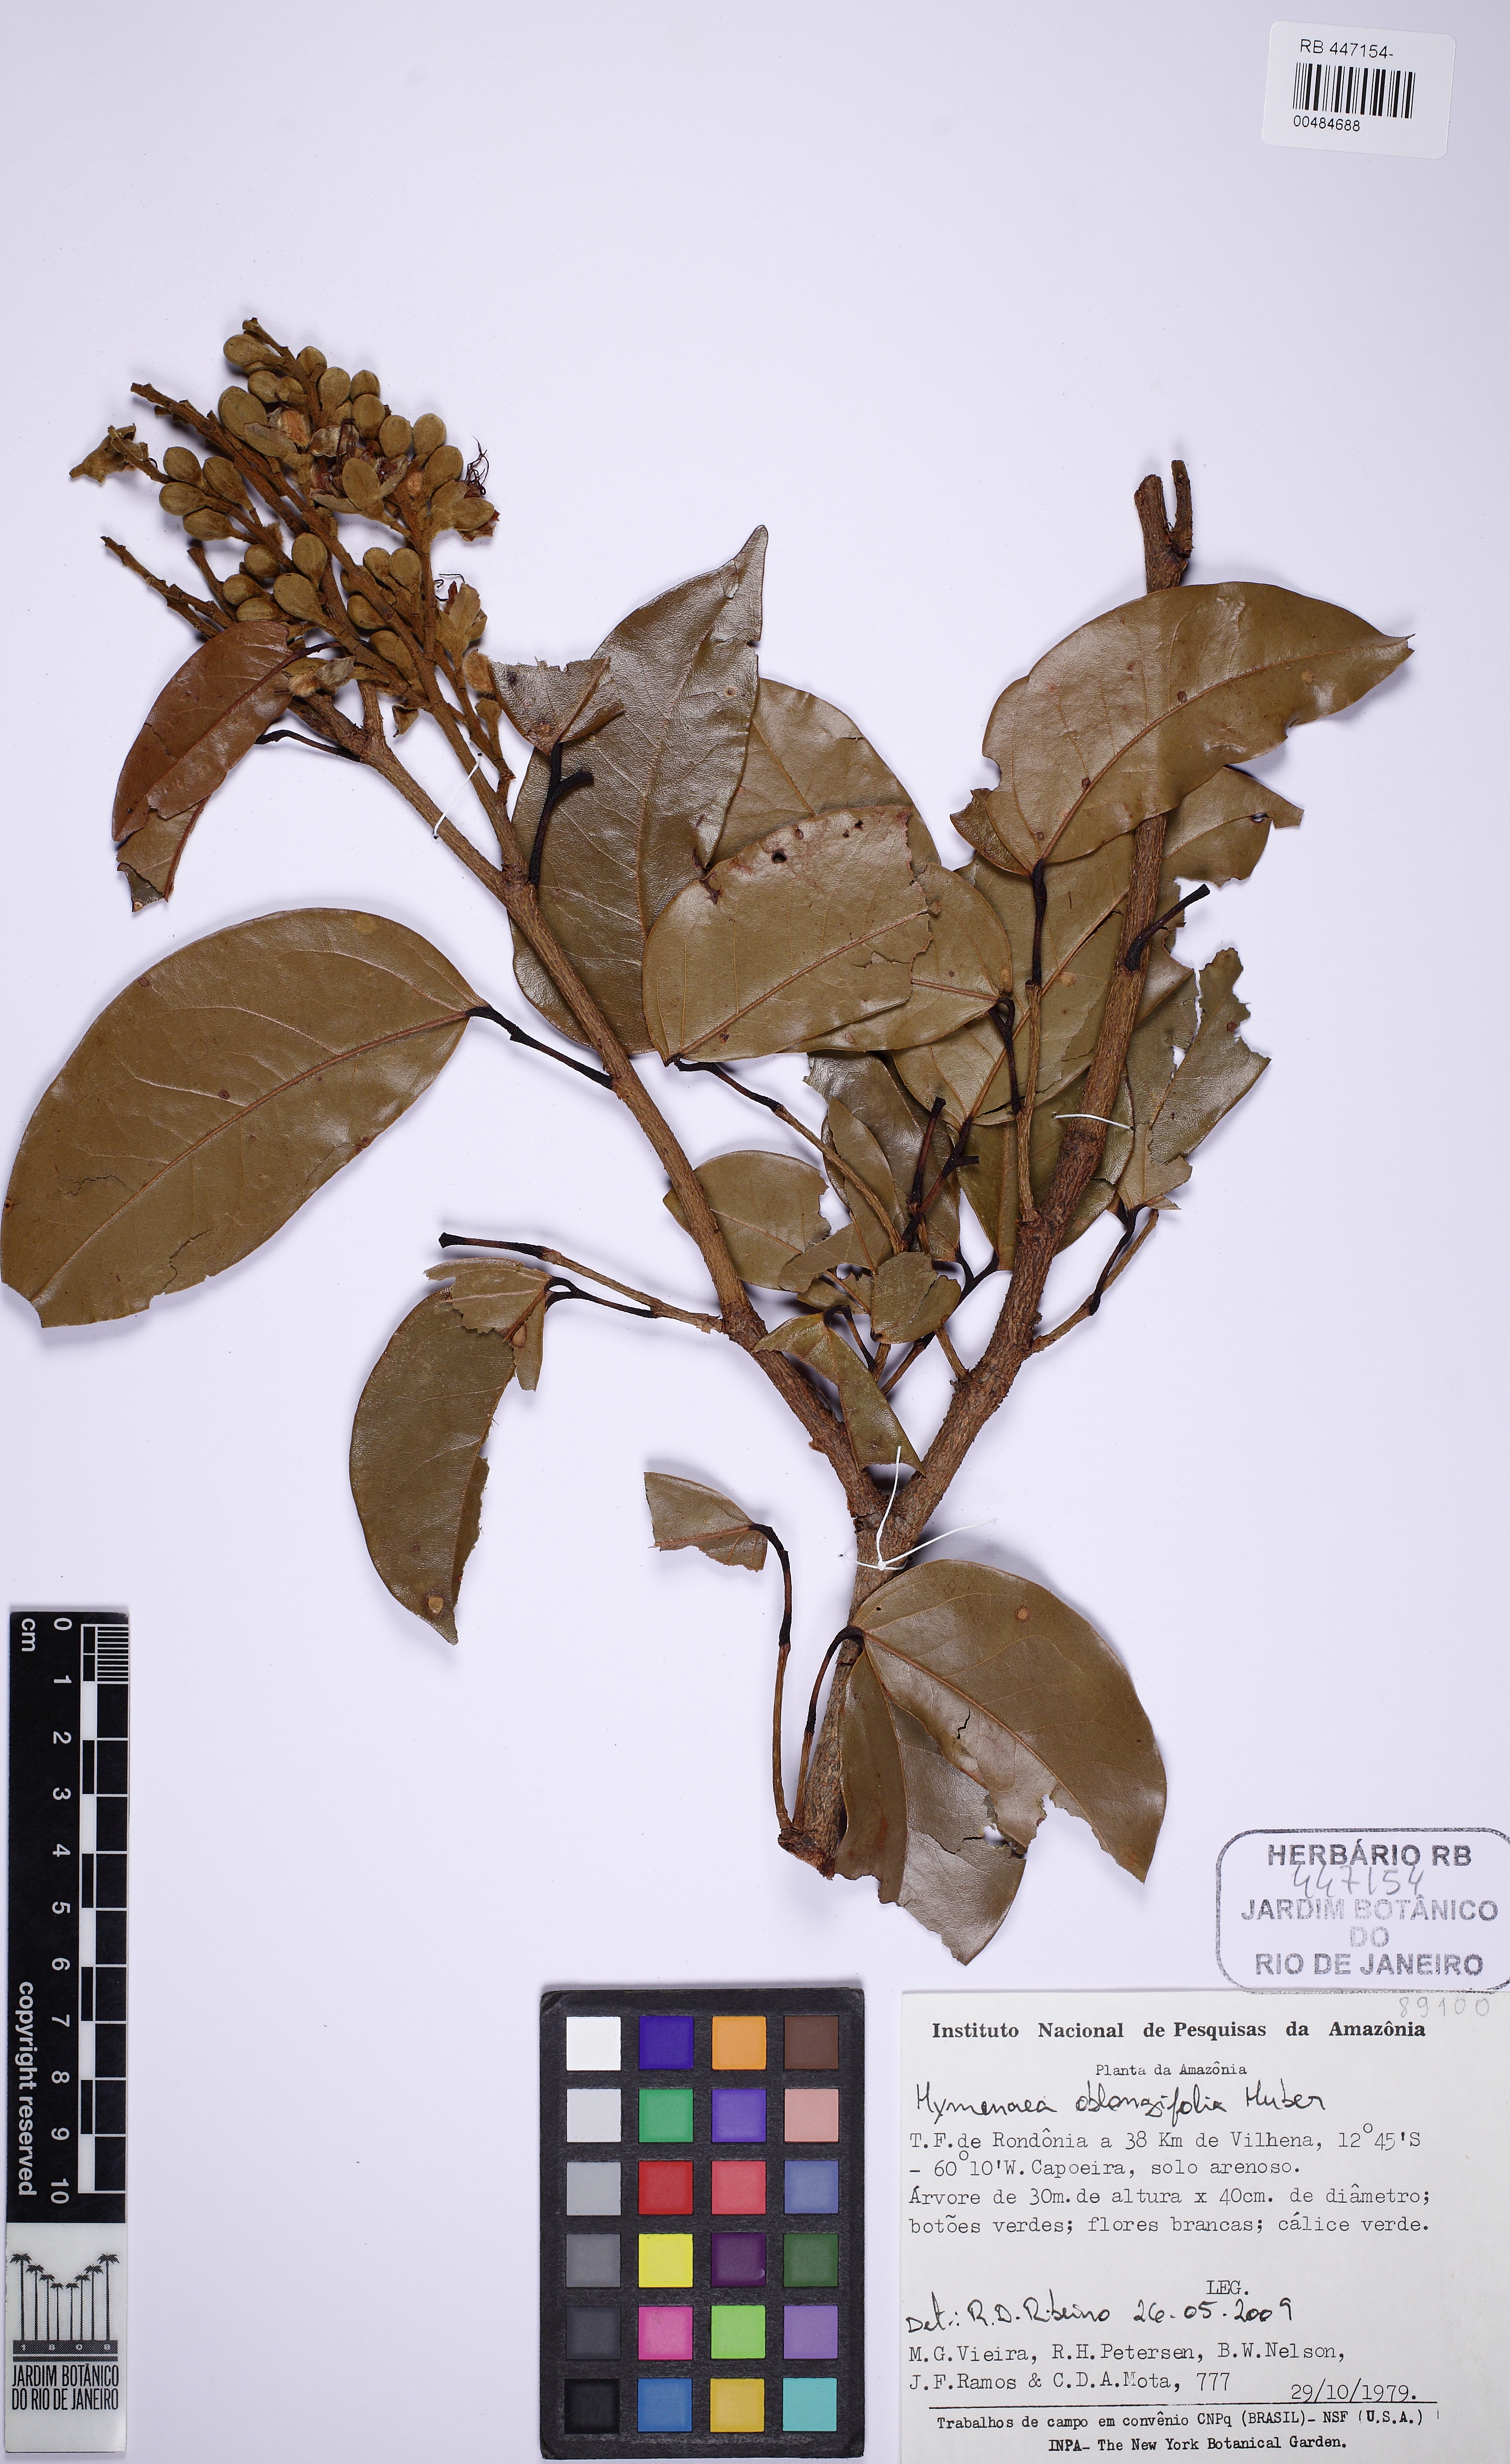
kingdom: Plantae
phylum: Tracheophyta
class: Magnoliopsida
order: Fabales
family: Fabaceae
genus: Hymenaea
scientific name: Hymenaea oblongifolia
